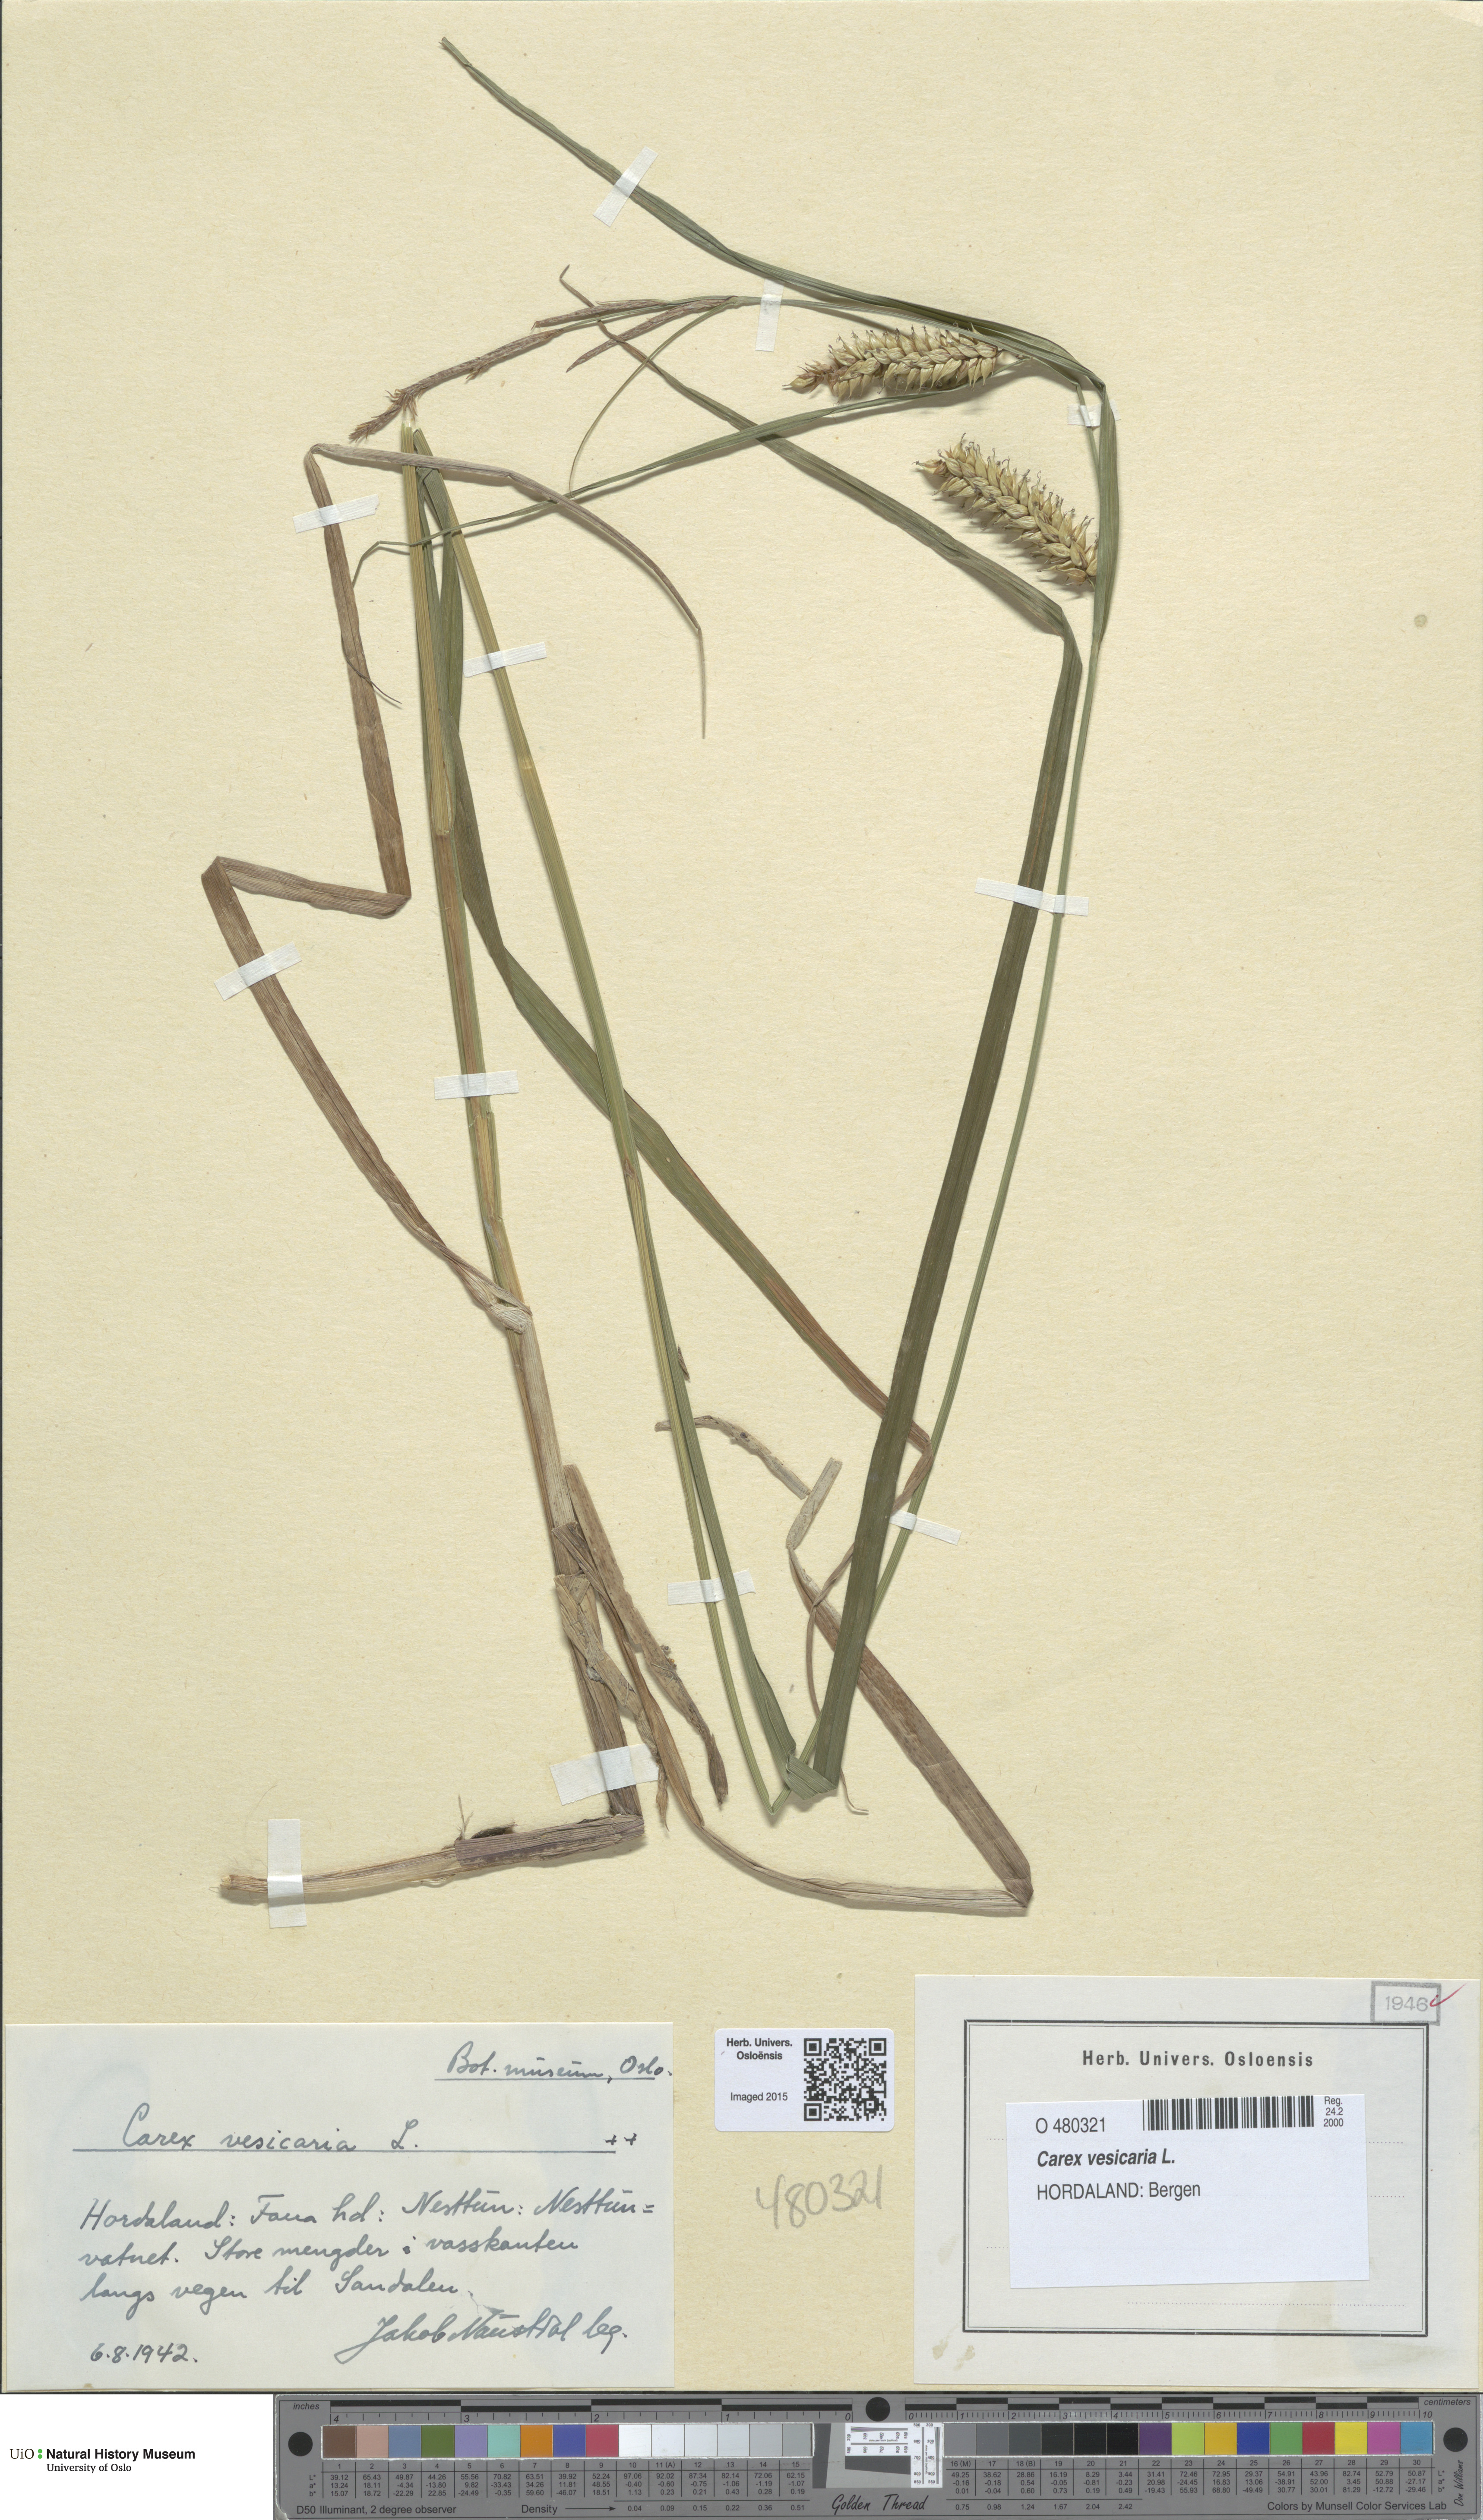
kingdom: Plantae
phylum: Tracheophyta
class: Liliopsida
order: Poales
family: Cyperaceae
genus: Carex
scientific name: Carex vesicaria
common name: Bladder-sedge
